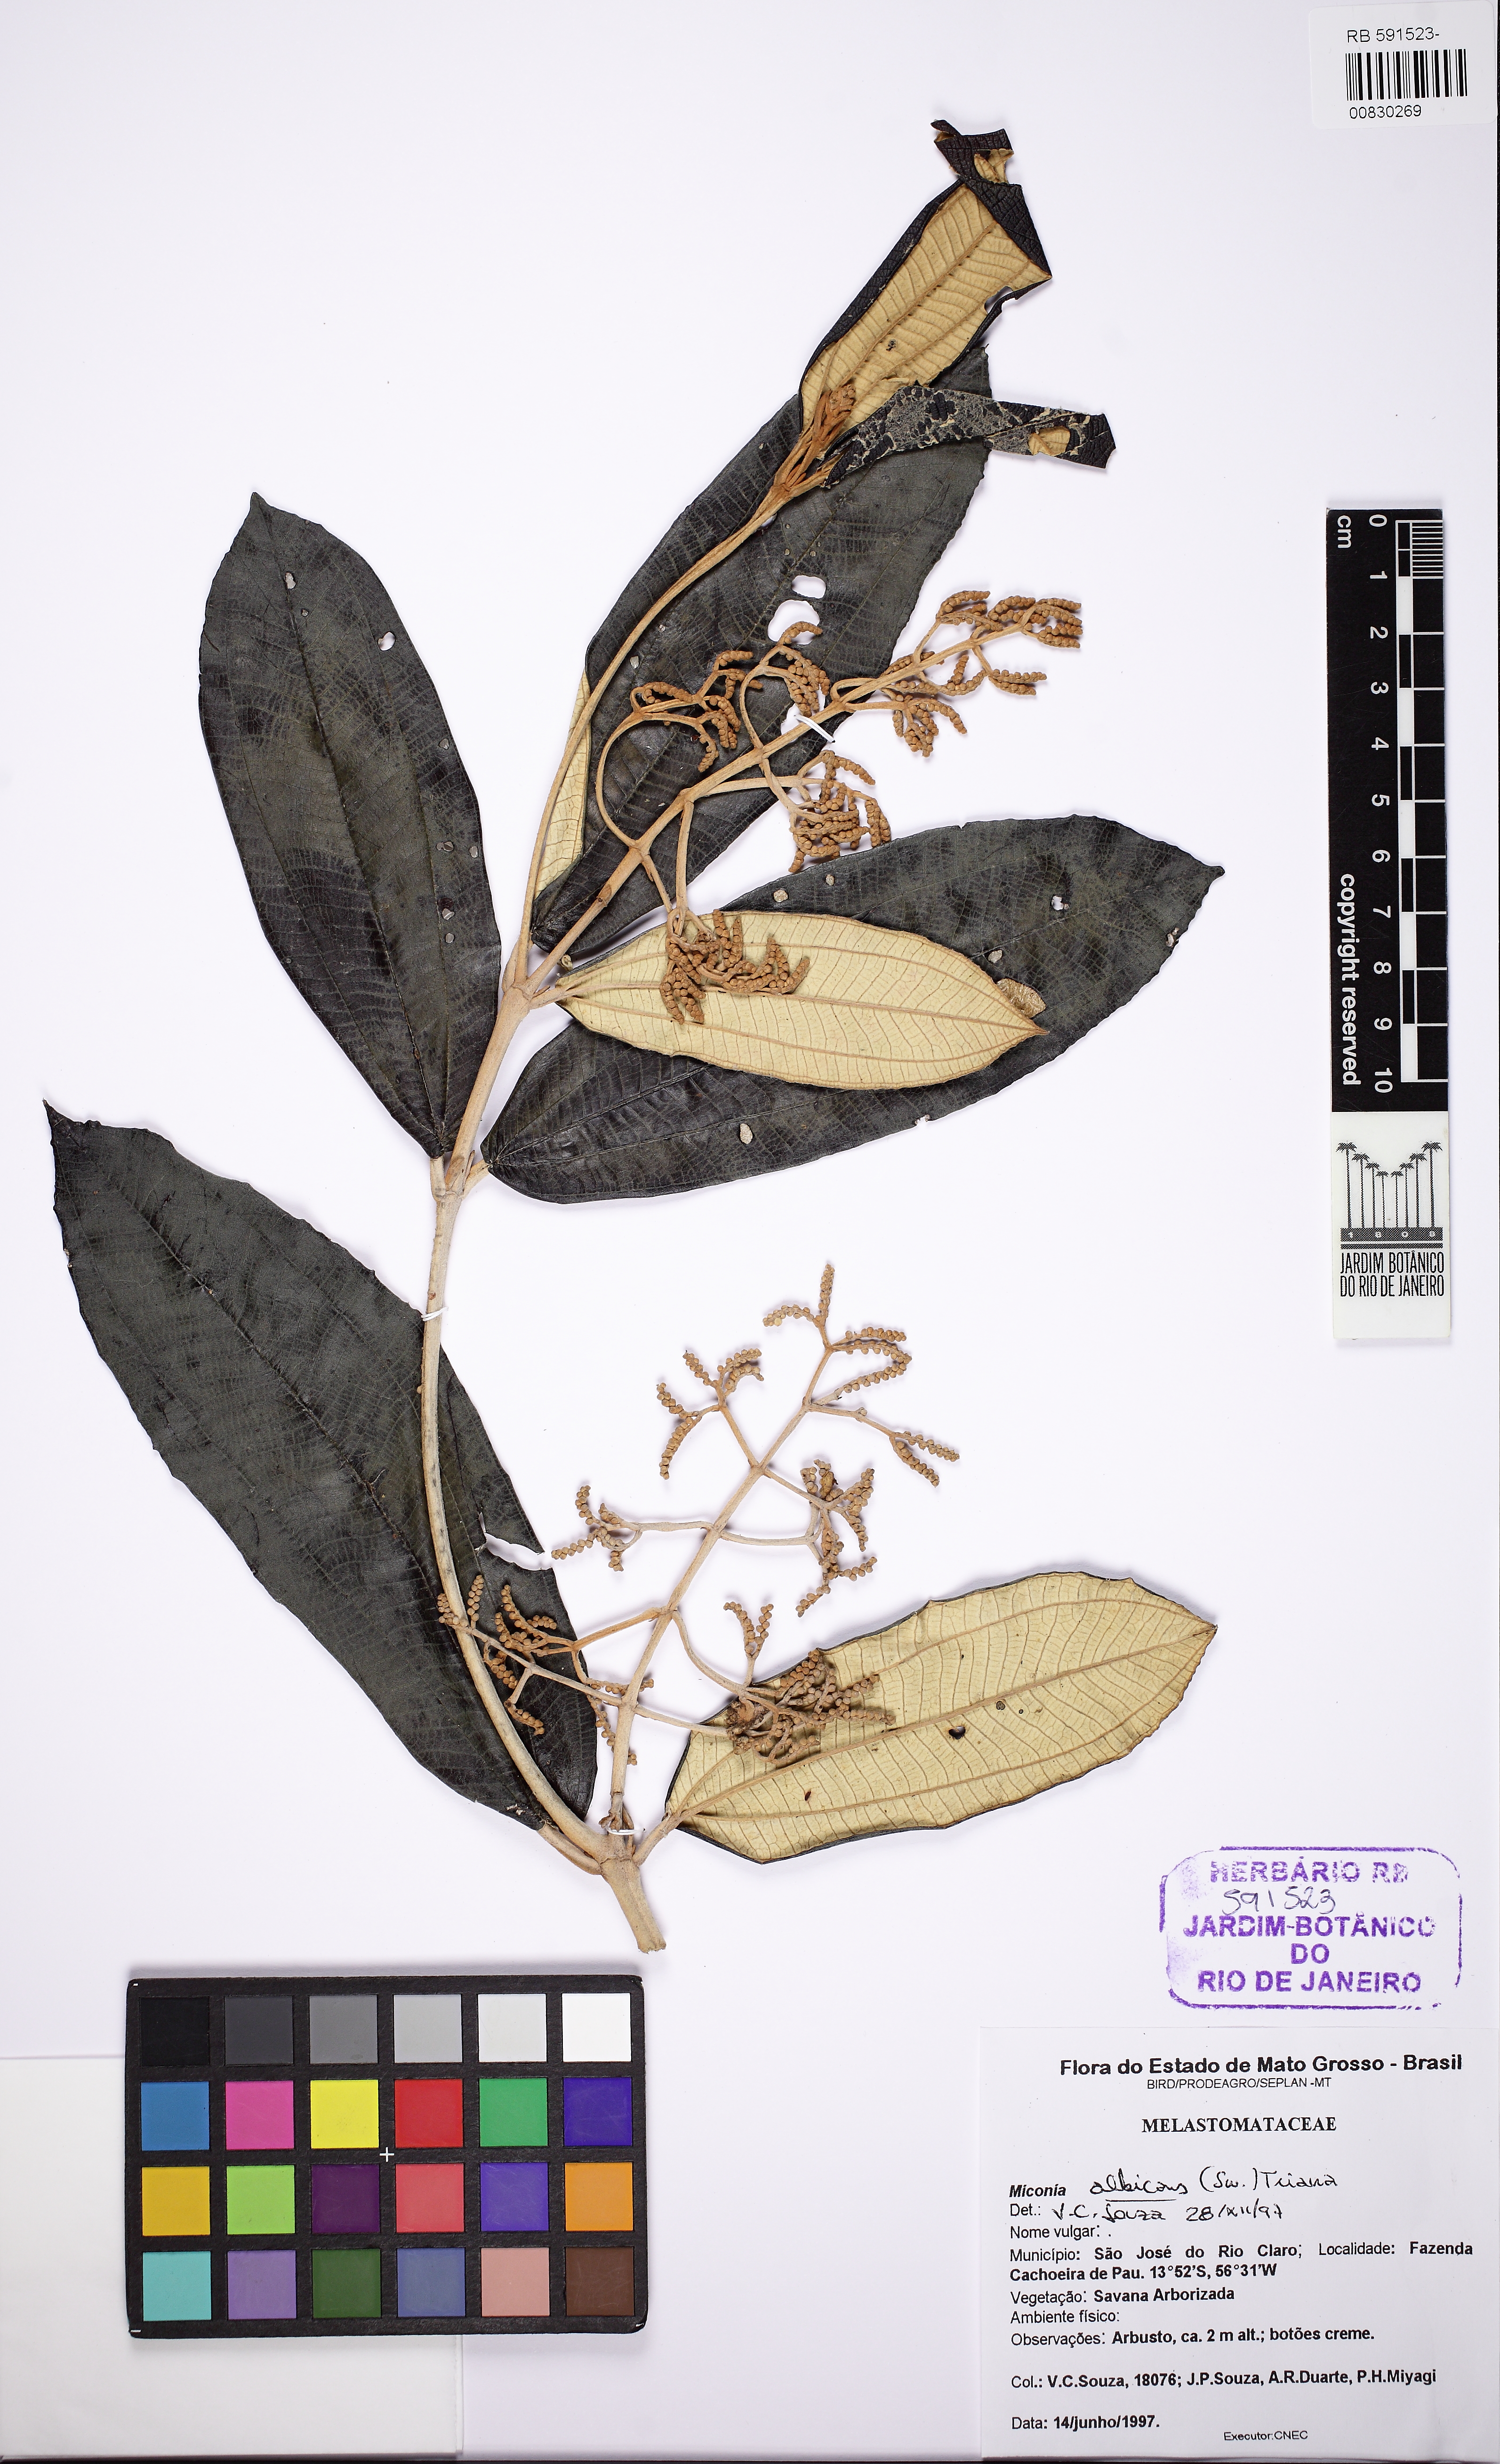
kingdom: Plantae
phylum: Tracheophyta
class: Magnoliopsida
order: Myrtales
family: Melastomataceae
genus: Miconia
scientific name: Miconia albicans
